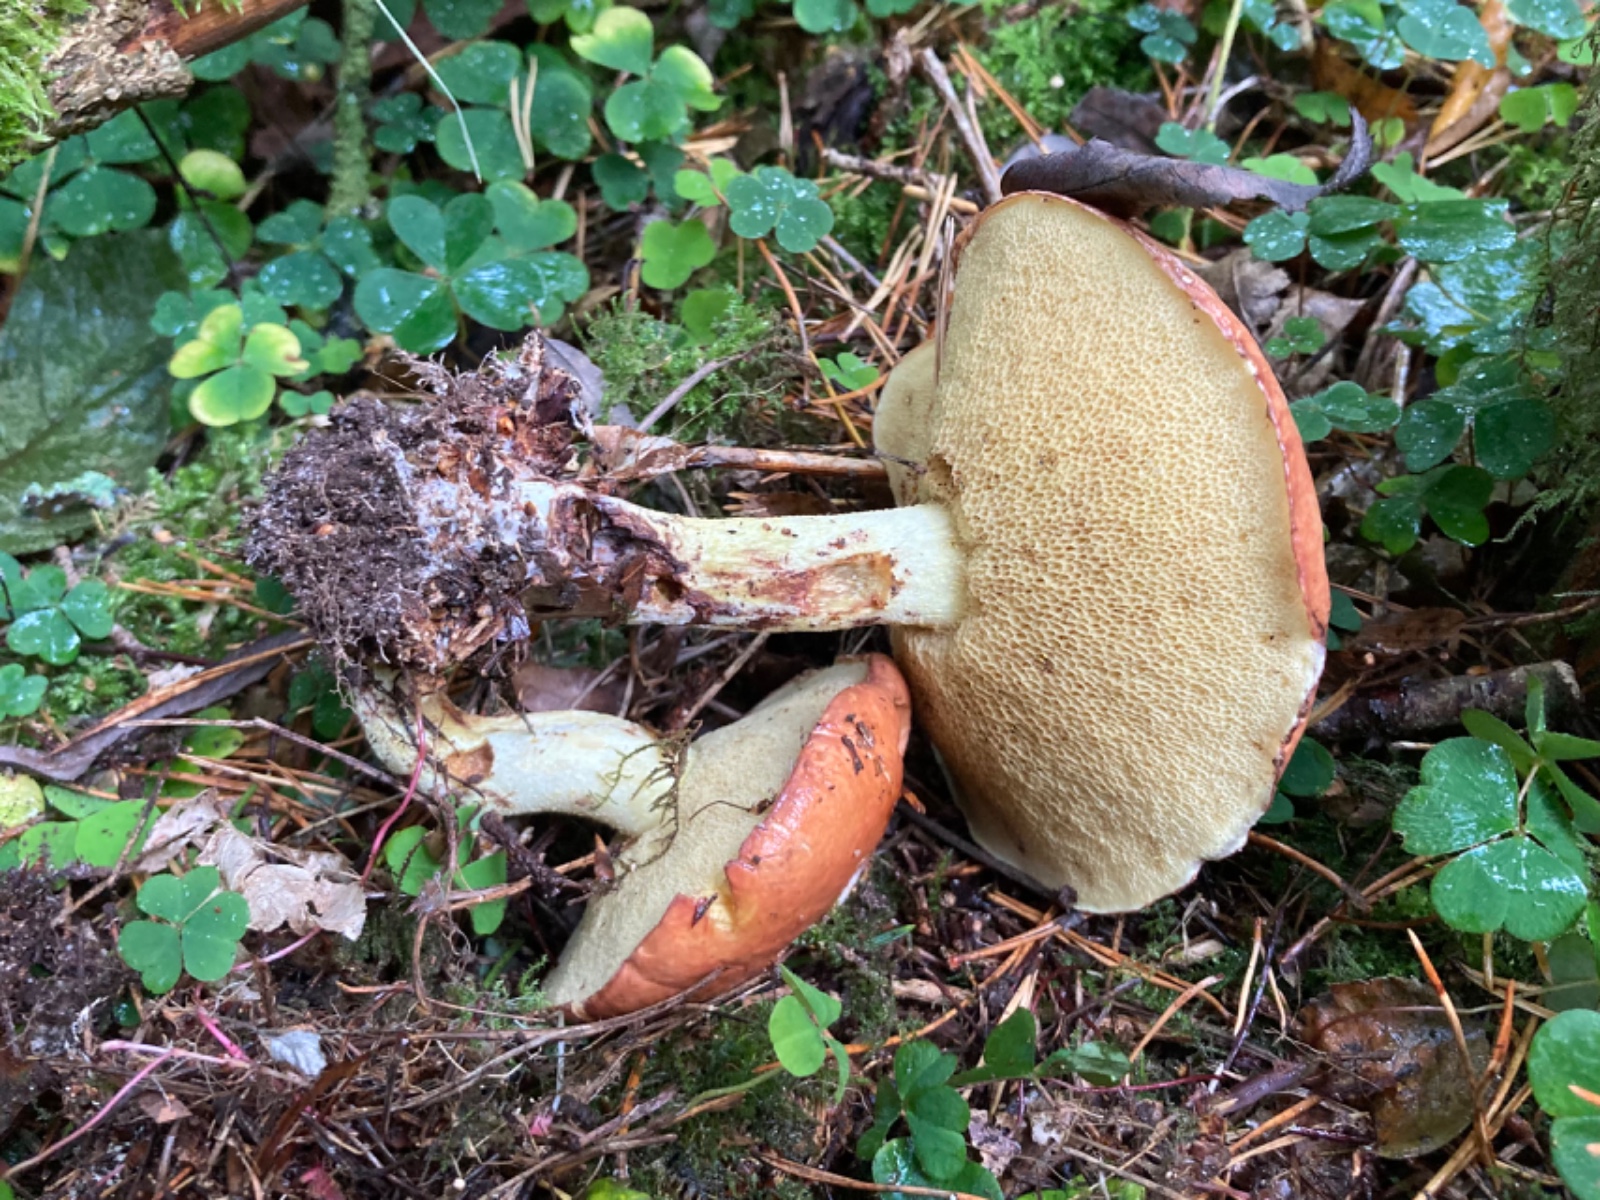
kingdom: Fungi
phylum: Basidiomycota
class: Agaricomycetes
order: Boletales
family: Suillaceae
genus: Suillus
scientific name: Suillus granulatus
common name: kornet slimrørhat
